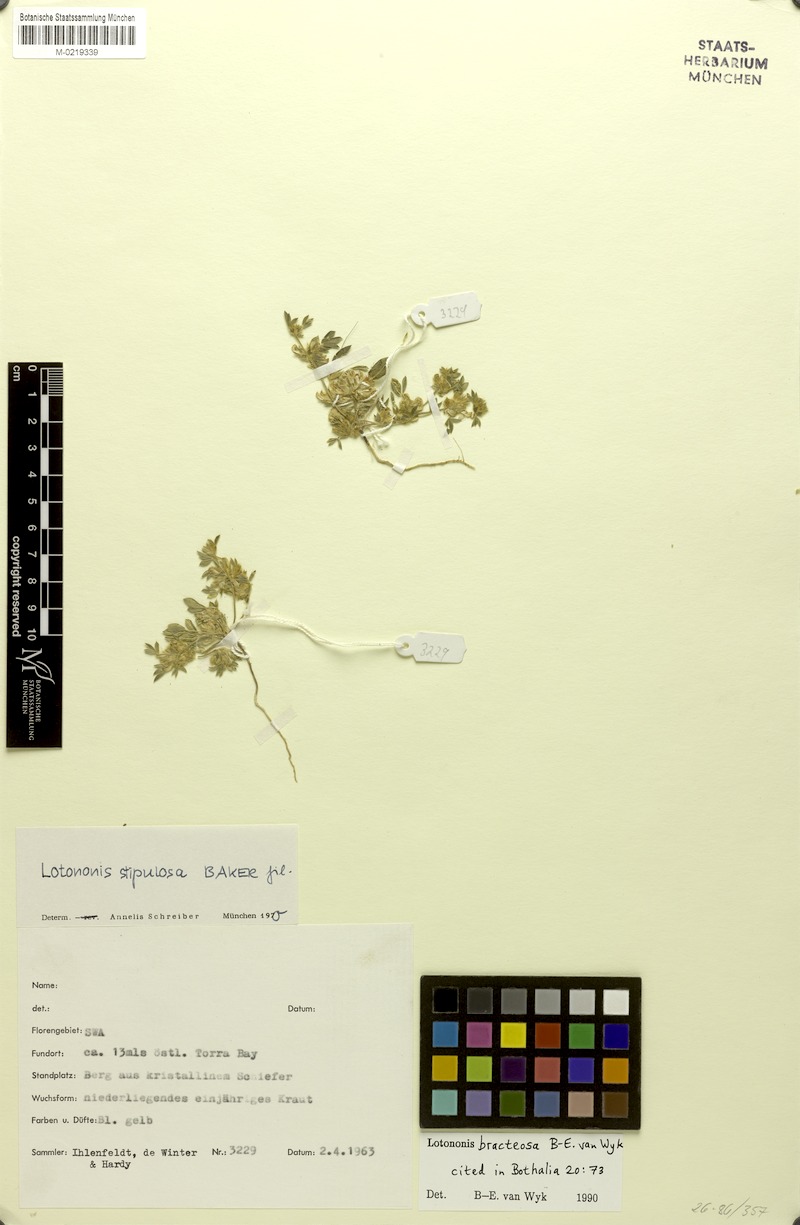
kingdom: Plantae
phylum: Tracheophyta
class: Magnoliopsida
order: Fabales
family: Fabaceae
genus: Leobordea
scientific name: Leobordea bracteosa
